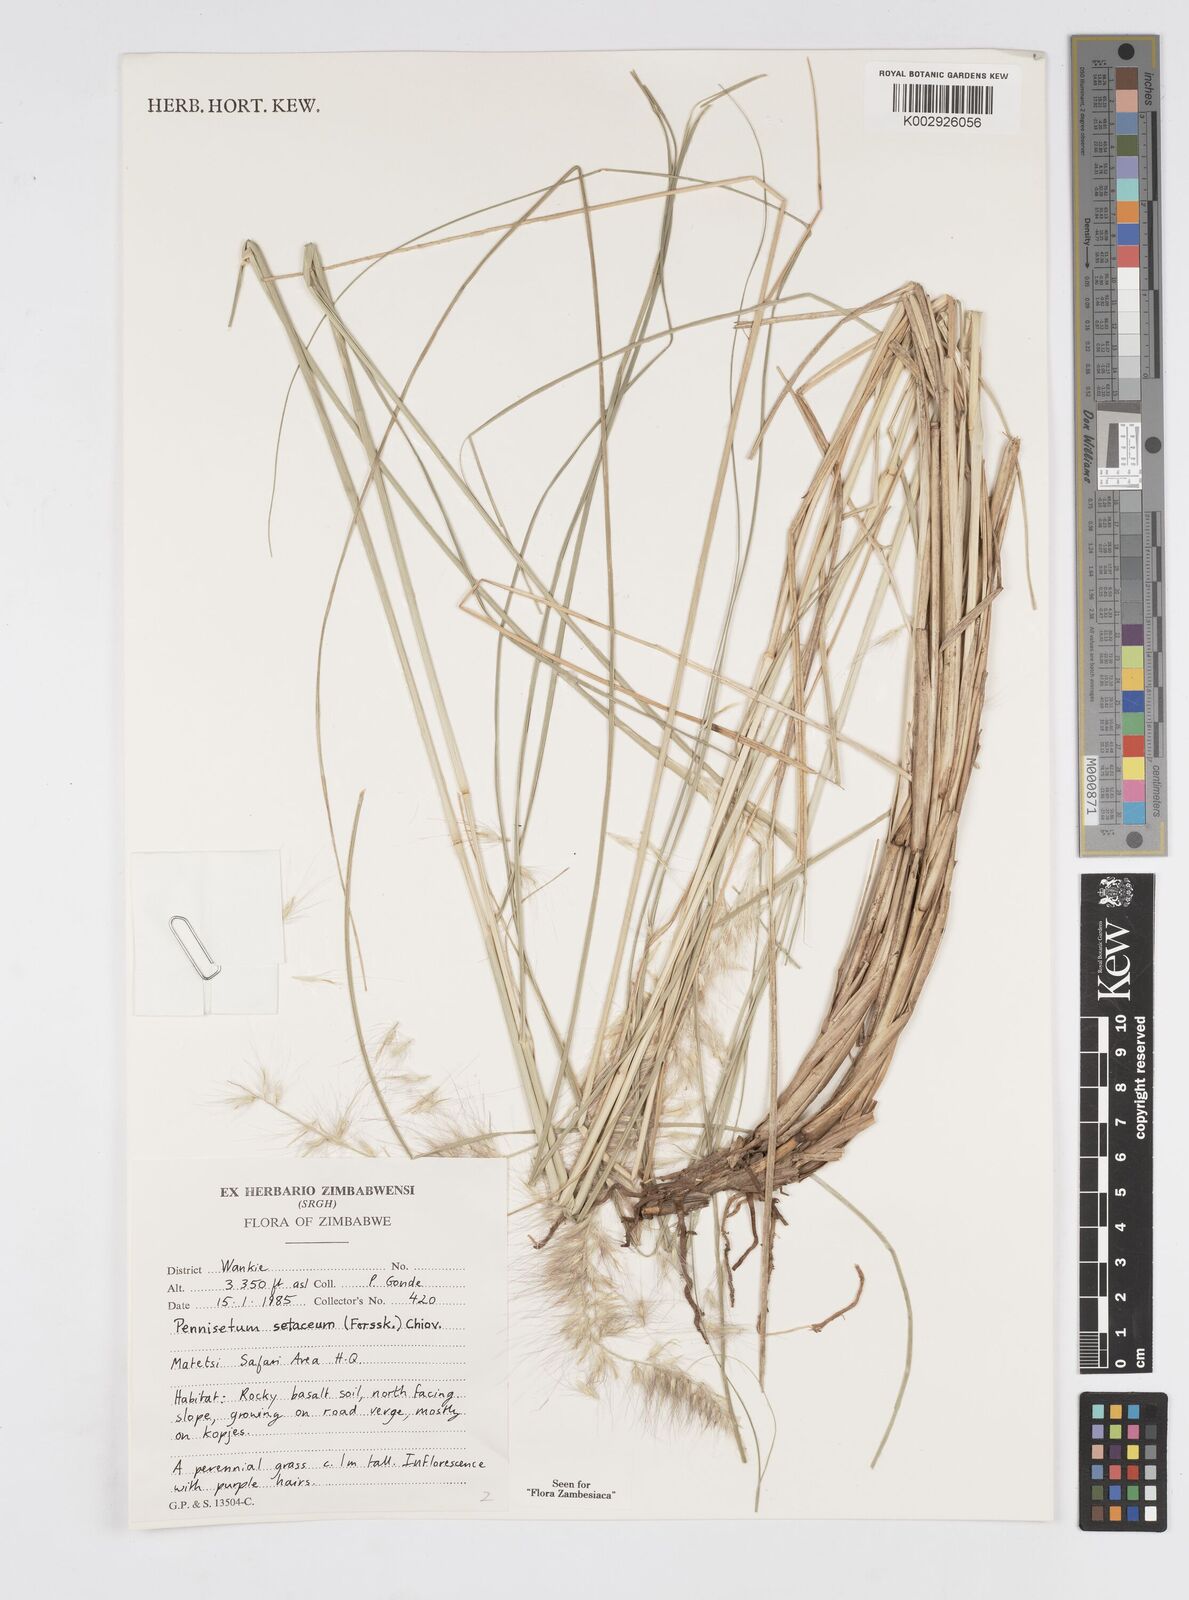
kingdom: Plantae
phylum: Tracheophyta
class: Liliopsida
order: Poales
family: Poaceae
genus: Cenchrus
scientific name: Cenchrus setaceus
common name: Crimson fountaingrass
